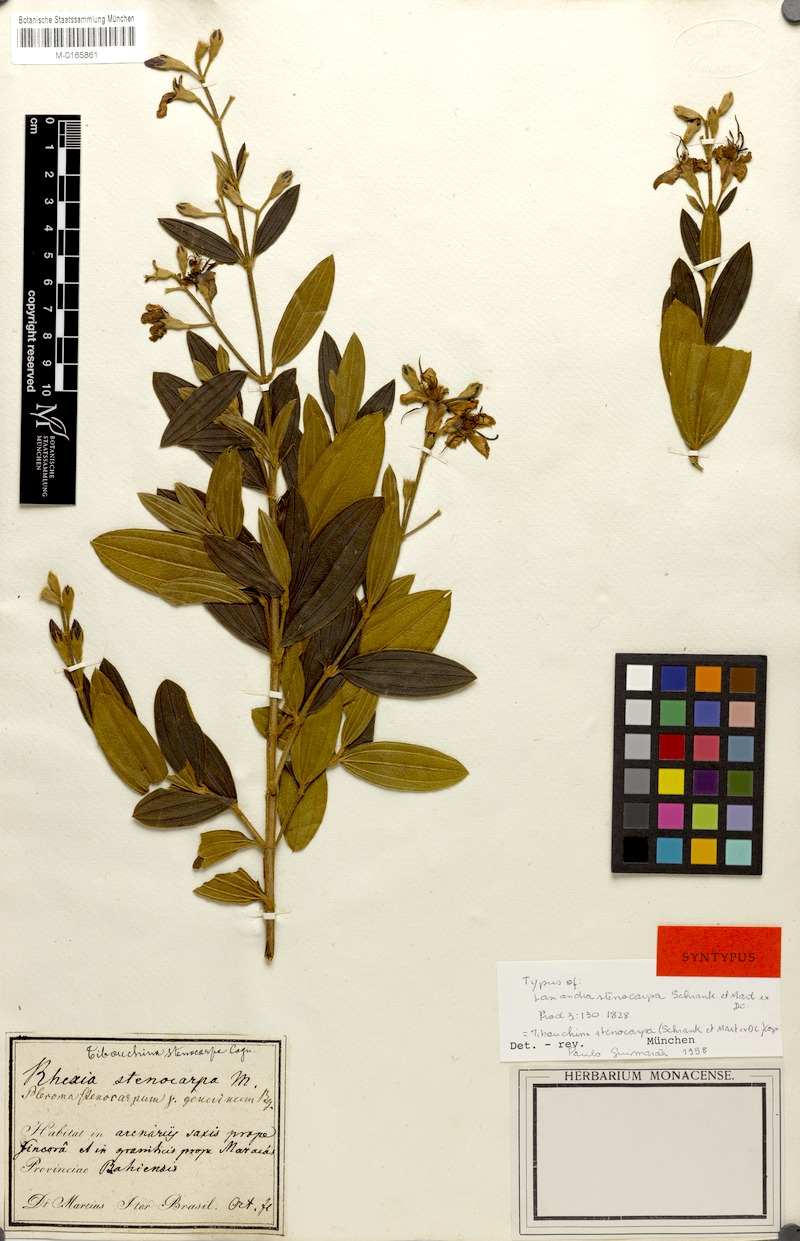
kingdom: Plantae
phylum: Tracheophyta
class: Magnoliopsida
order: Myrtales
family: Melastomataceae
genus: Pleroma
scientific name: Pleroma stenocarpum
